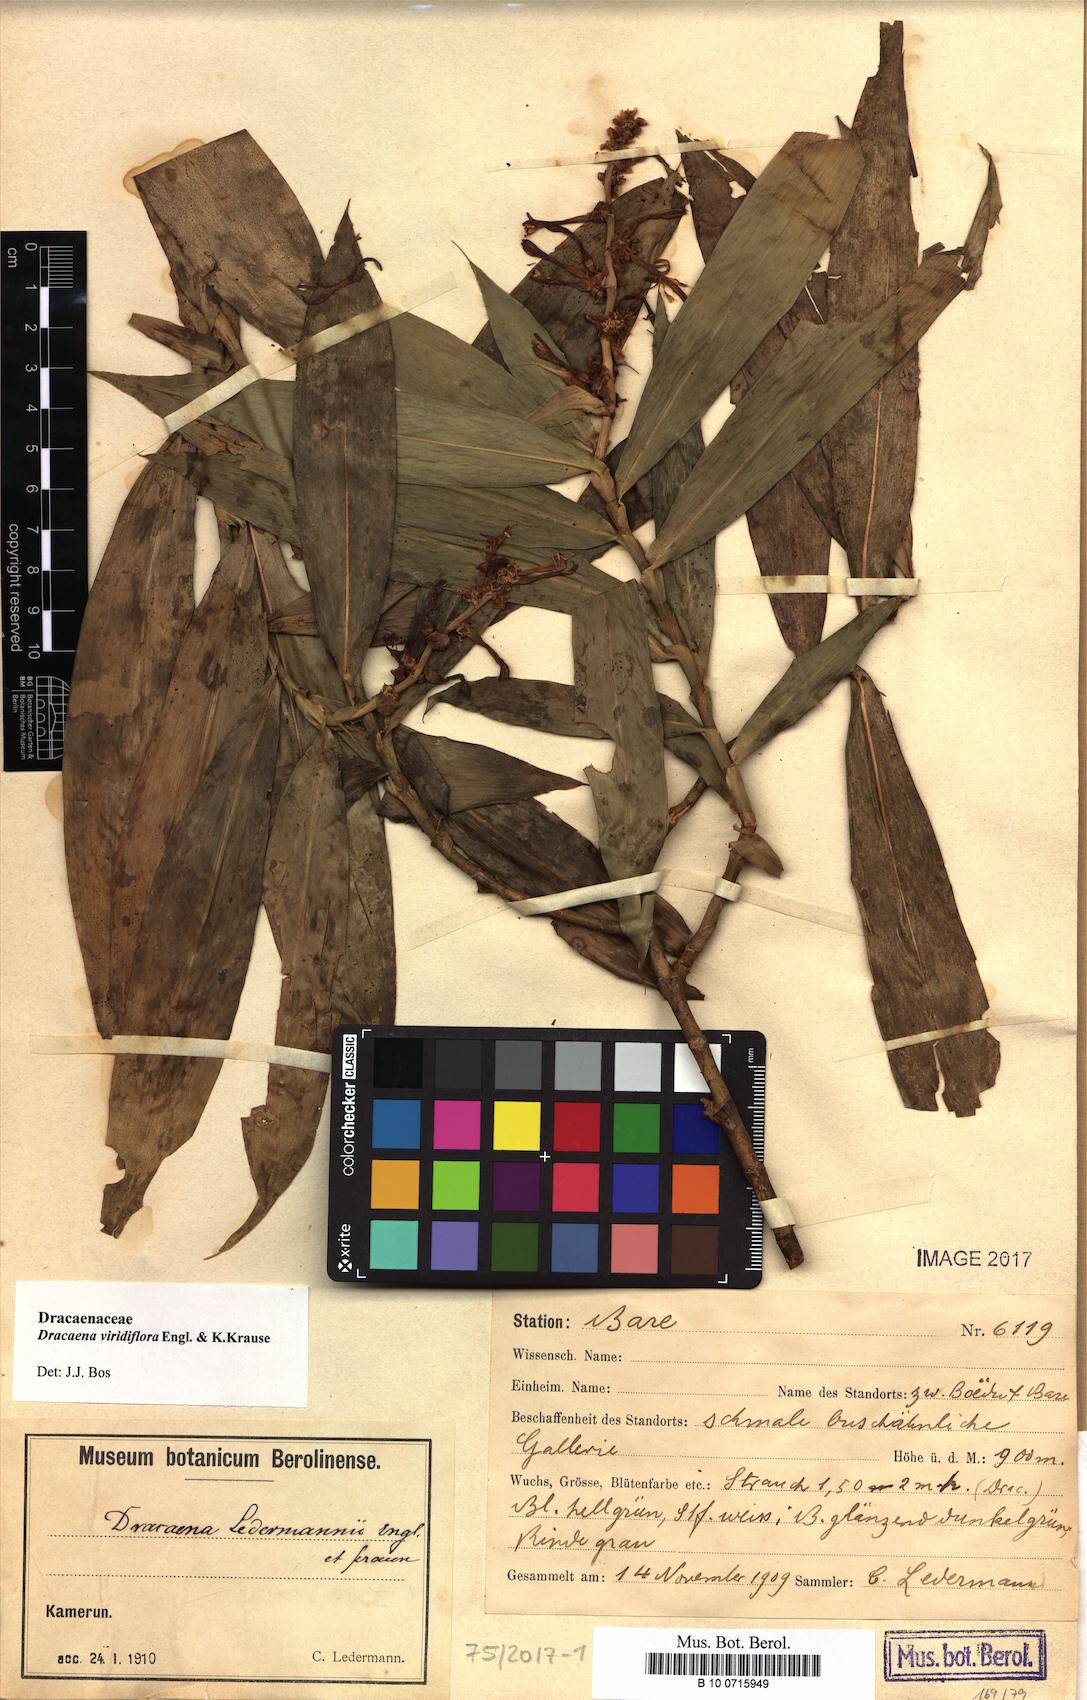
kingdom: Plantae
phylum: Tracheophyta
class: Liliopsida
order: Asparagales
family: Asparagaceae
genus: Dracaena
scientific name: Dracaena viridiflora
